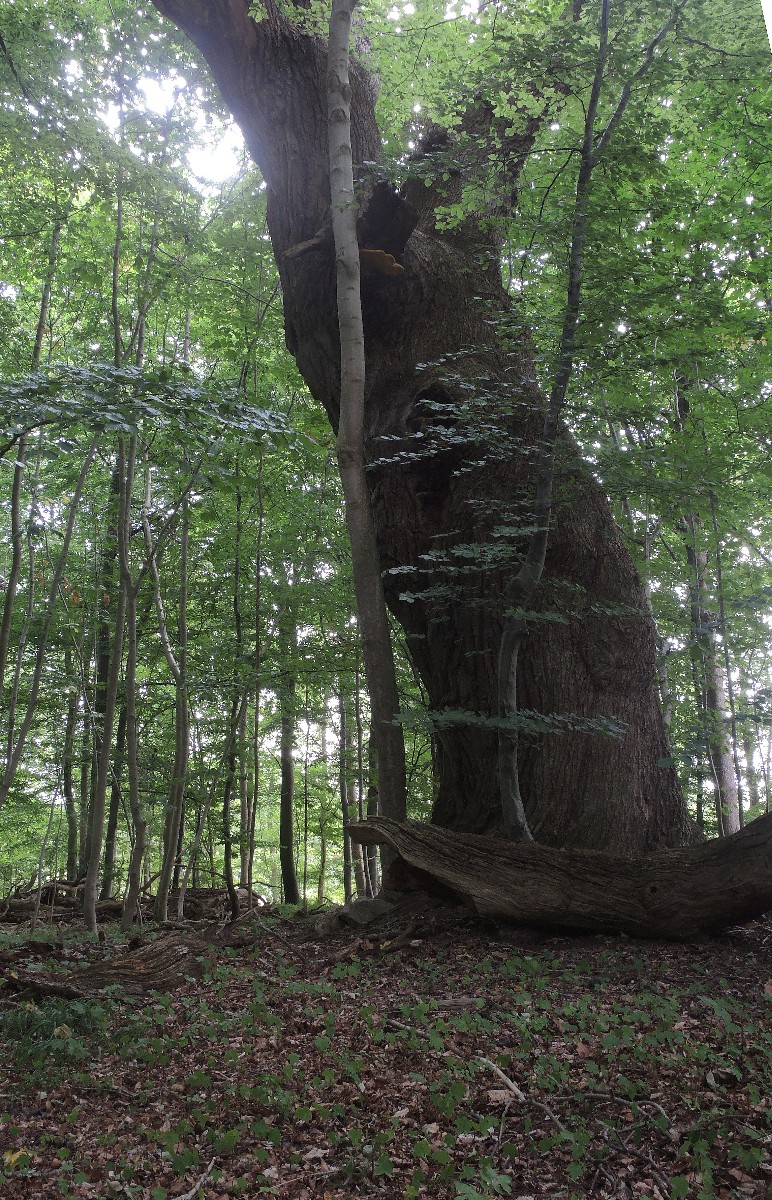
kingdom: Fungi
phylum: Basidiomycota
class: Agaricomycetes
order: Polyporales
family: Phanerochaetaceae
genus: Hapalopilus
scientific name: Hapalopilus croceus
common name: safrangul pragtporesvamp
